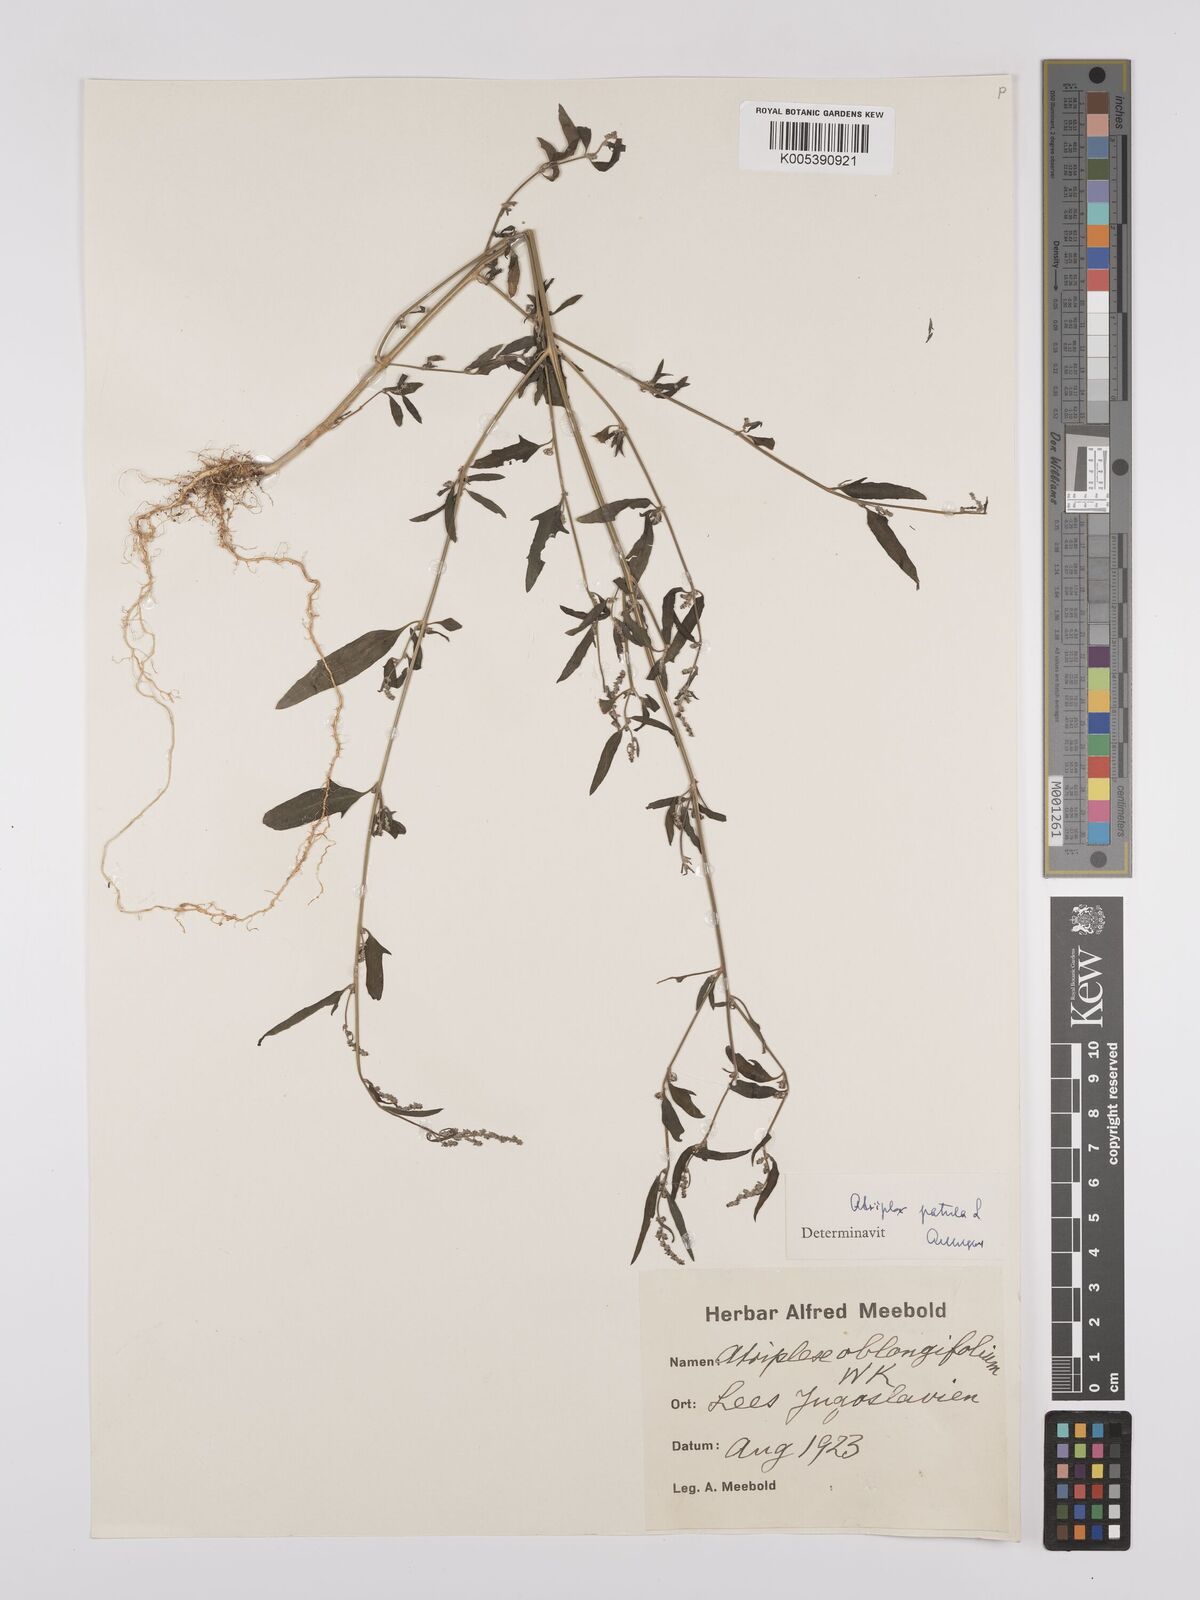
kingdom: Plantae
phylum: Tracheophyta
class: Magnoliopsida
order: Caryophyllales
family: Amaranthaceae
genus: Atriplex
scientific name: Atriplex
